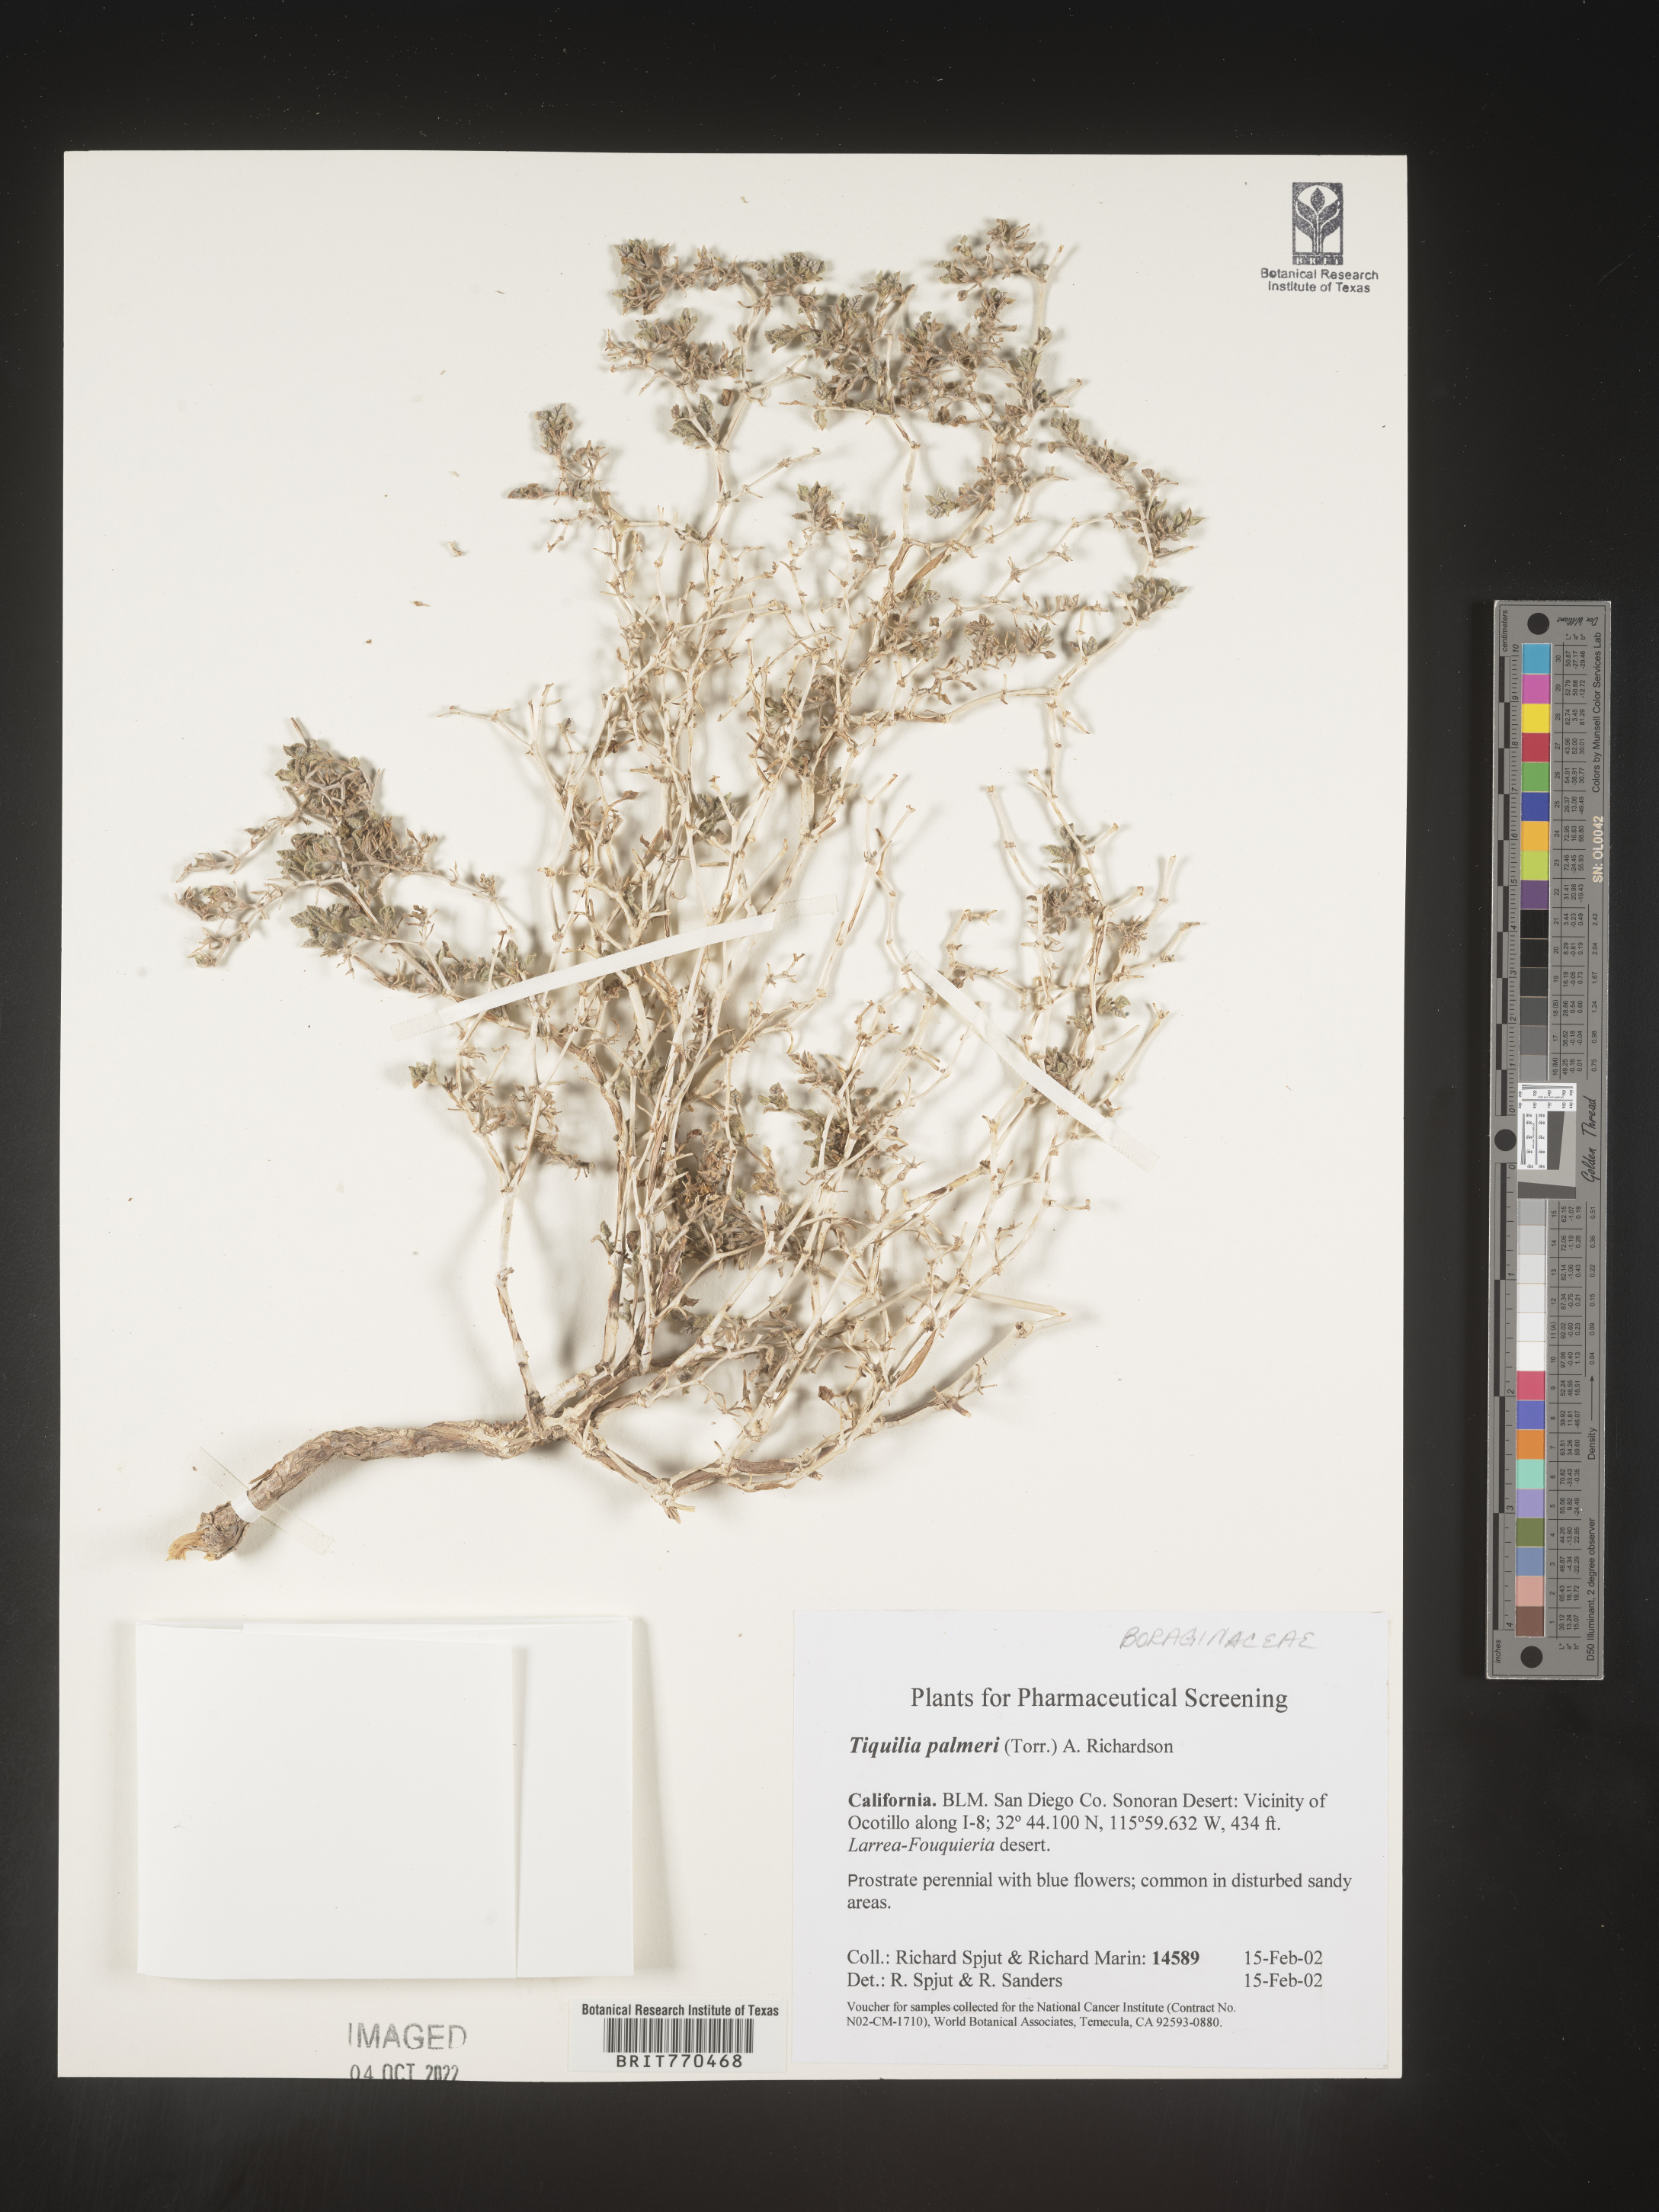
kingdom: Plantae
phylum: Tracheophyta
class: Magnoliopsida
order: Boraginales
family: Ehretiaceae
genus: Tiquilia
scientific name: Tiquilia
